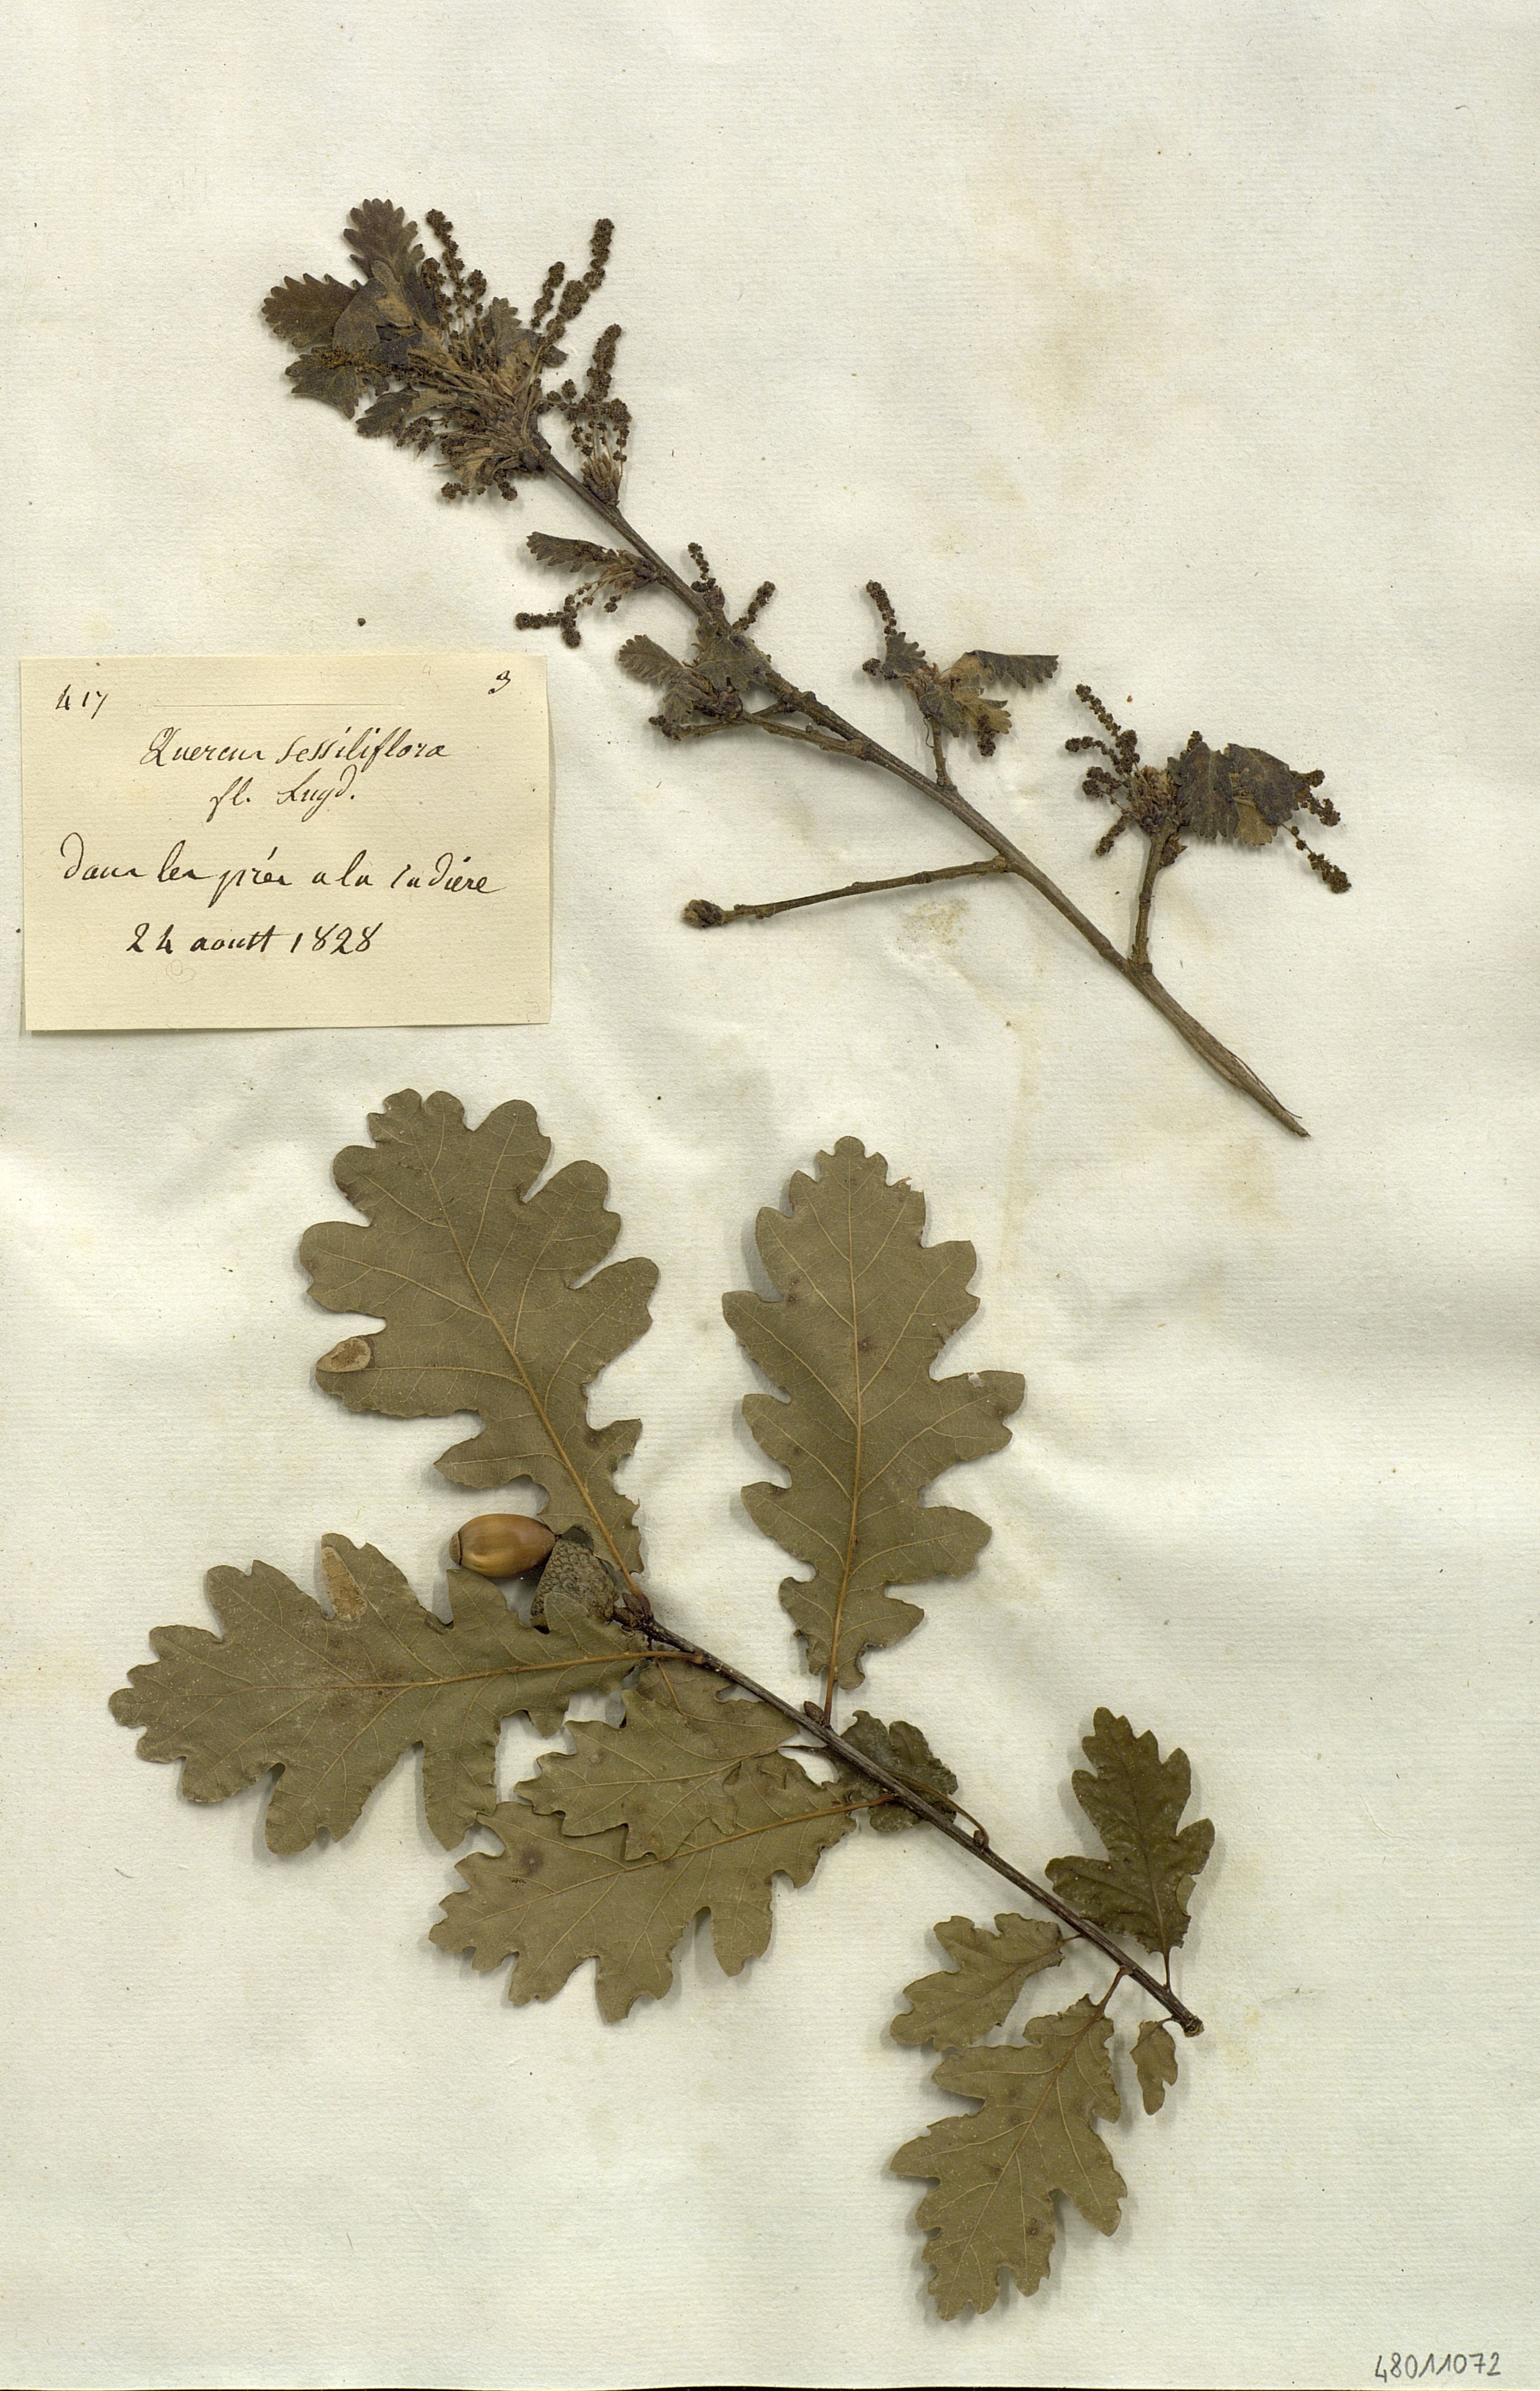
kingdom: Plantae
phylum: Tracheophyta
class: Magnoliopsida
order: Fagales
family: Fagaceae
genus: Quercus
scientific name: Quercus petraea
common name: Sessile oak
